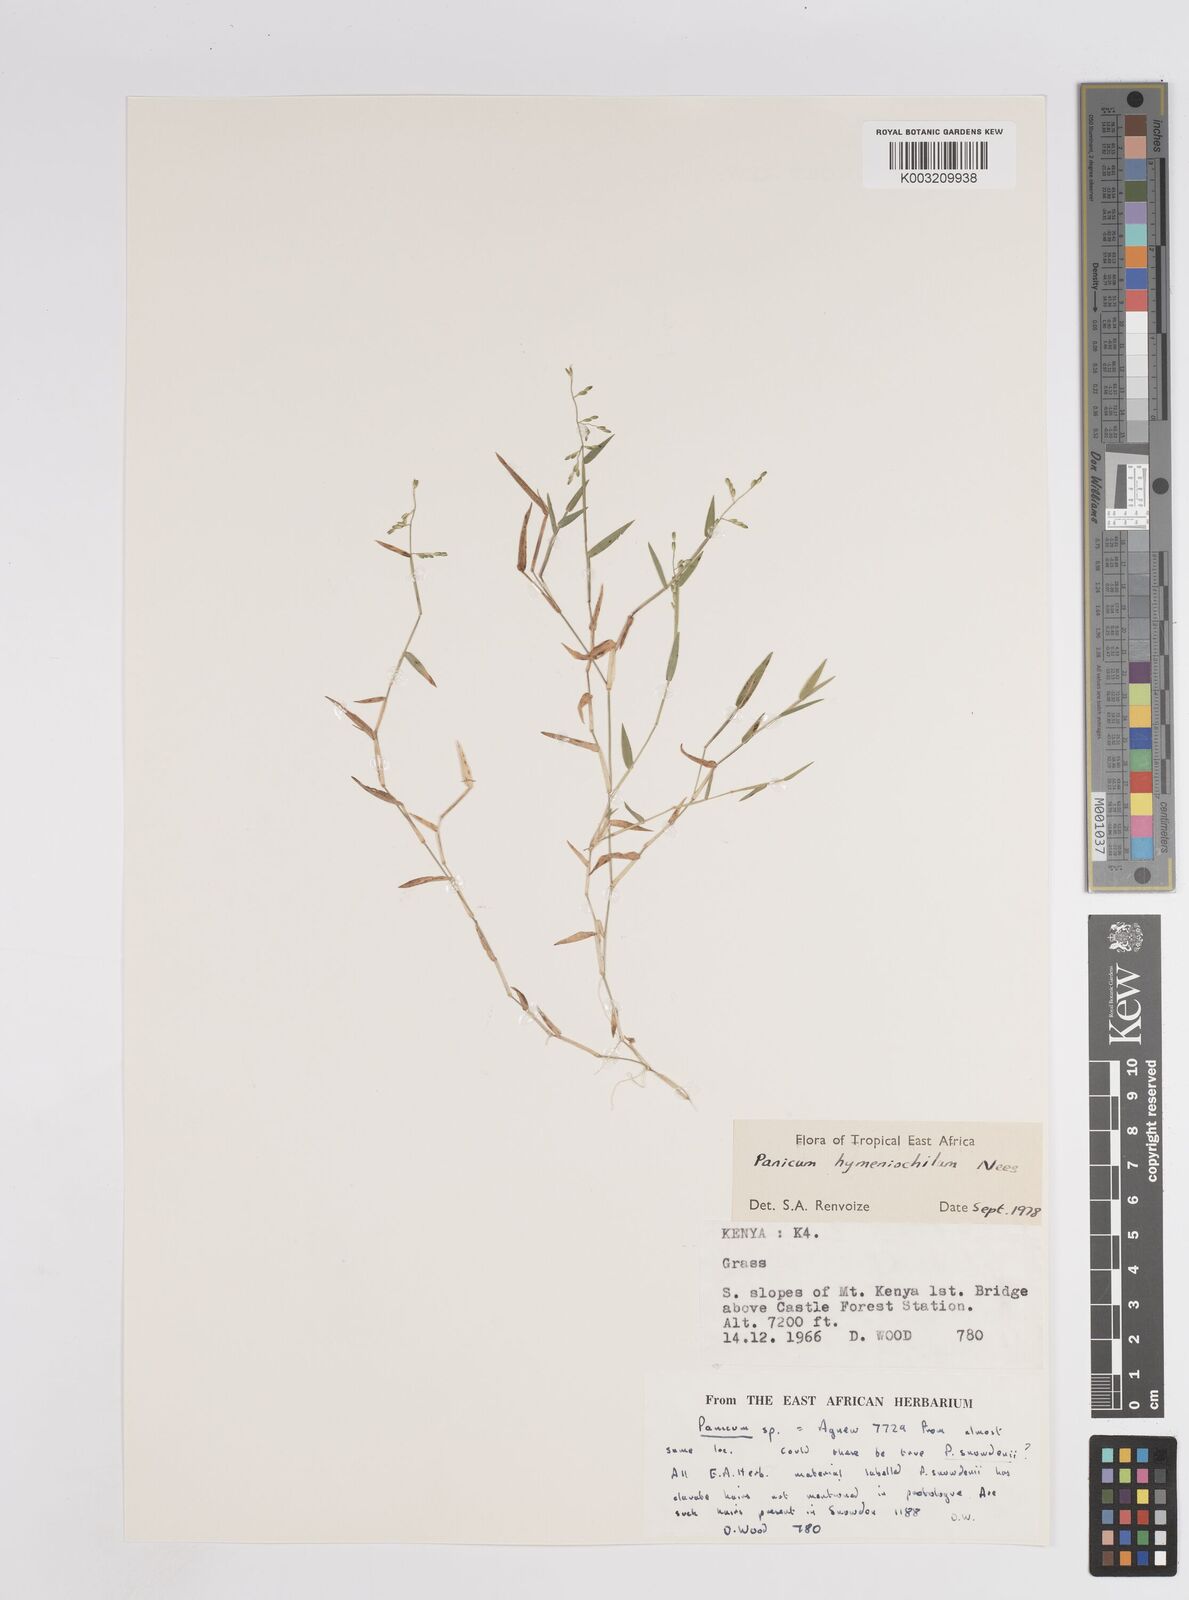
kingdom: Plantae
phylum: Tracheophyta
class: Liliopsida
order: Poales
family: Poaceae
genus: Adenochloa
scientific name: Adenochloa hymeniochila
